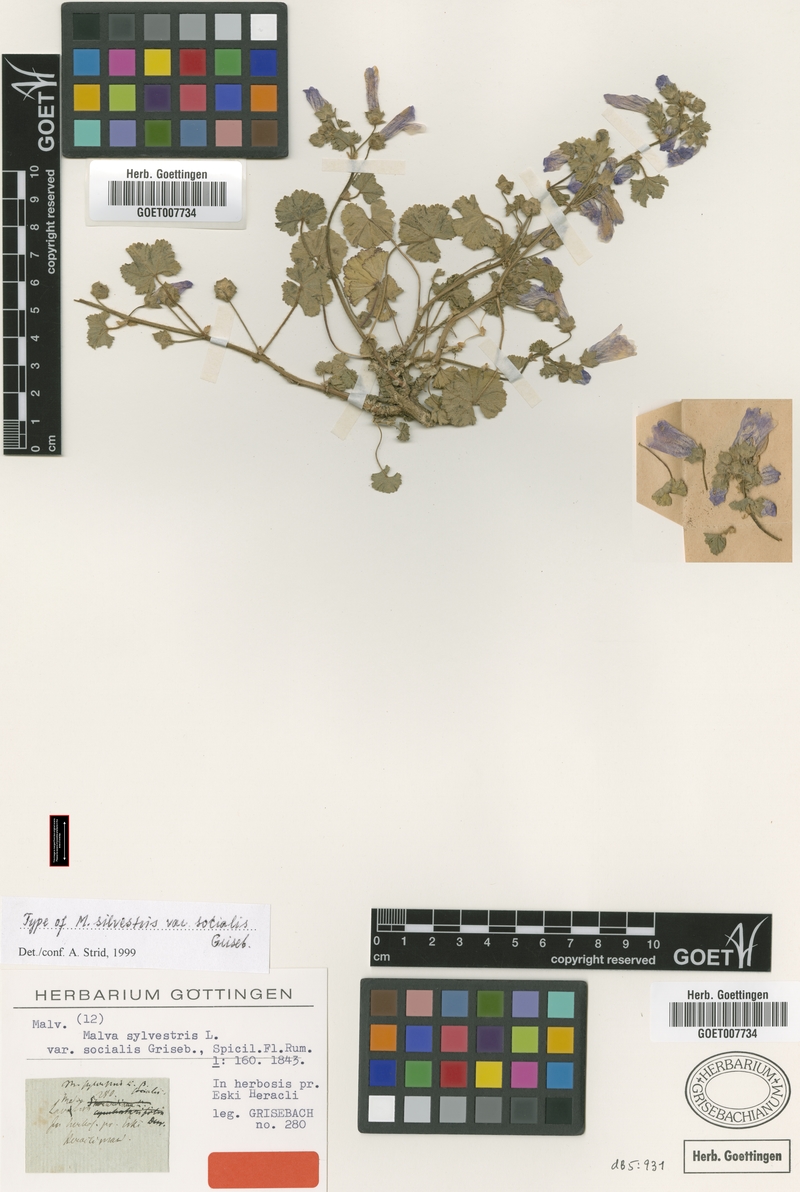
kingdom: Plantae
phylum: Tracheophyta
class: Magnoliopsida
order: Malvales
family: Malvaceae
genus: Malva
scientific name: Malva sylvestris
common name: Common mallow
